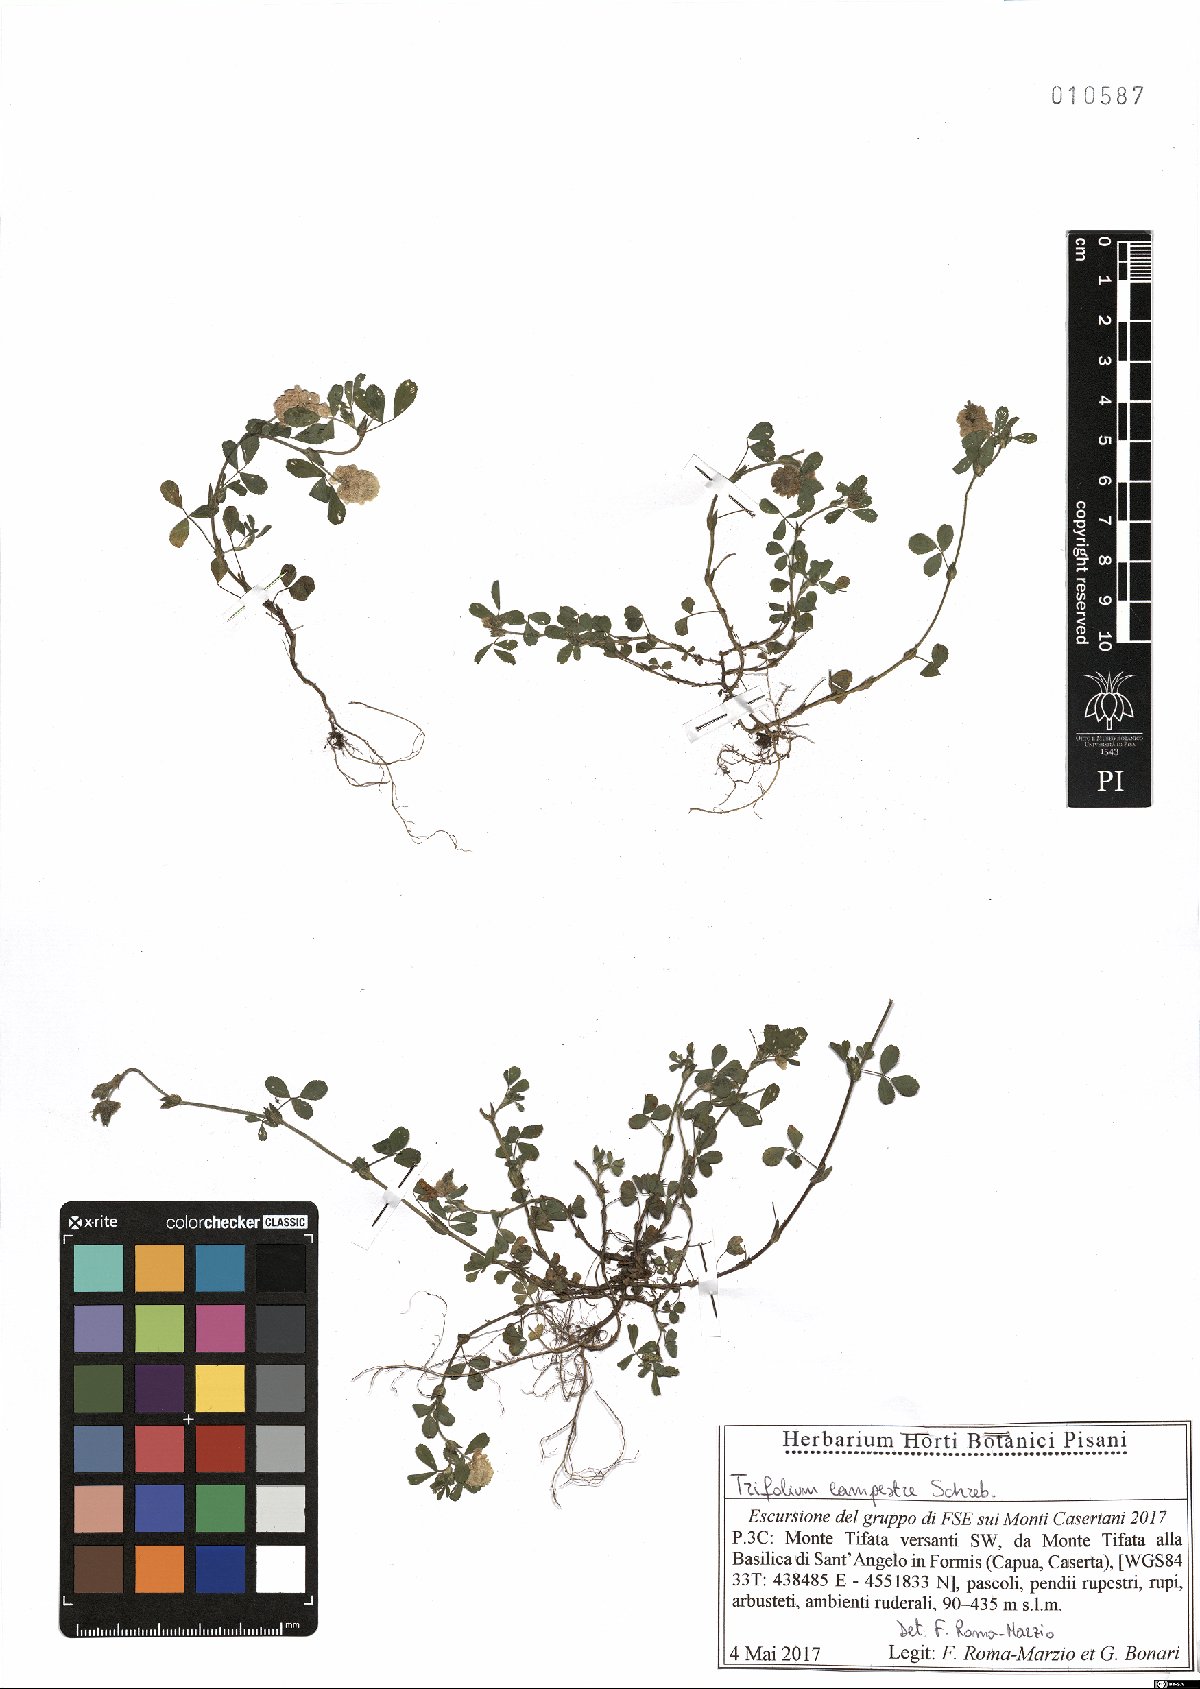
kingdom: Plantae
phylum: Tracheophyta
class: Magnoliopsida
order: Fabales
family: Fabaceae
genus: Trifolium
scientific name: Trifolium campestre
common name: Field clover
